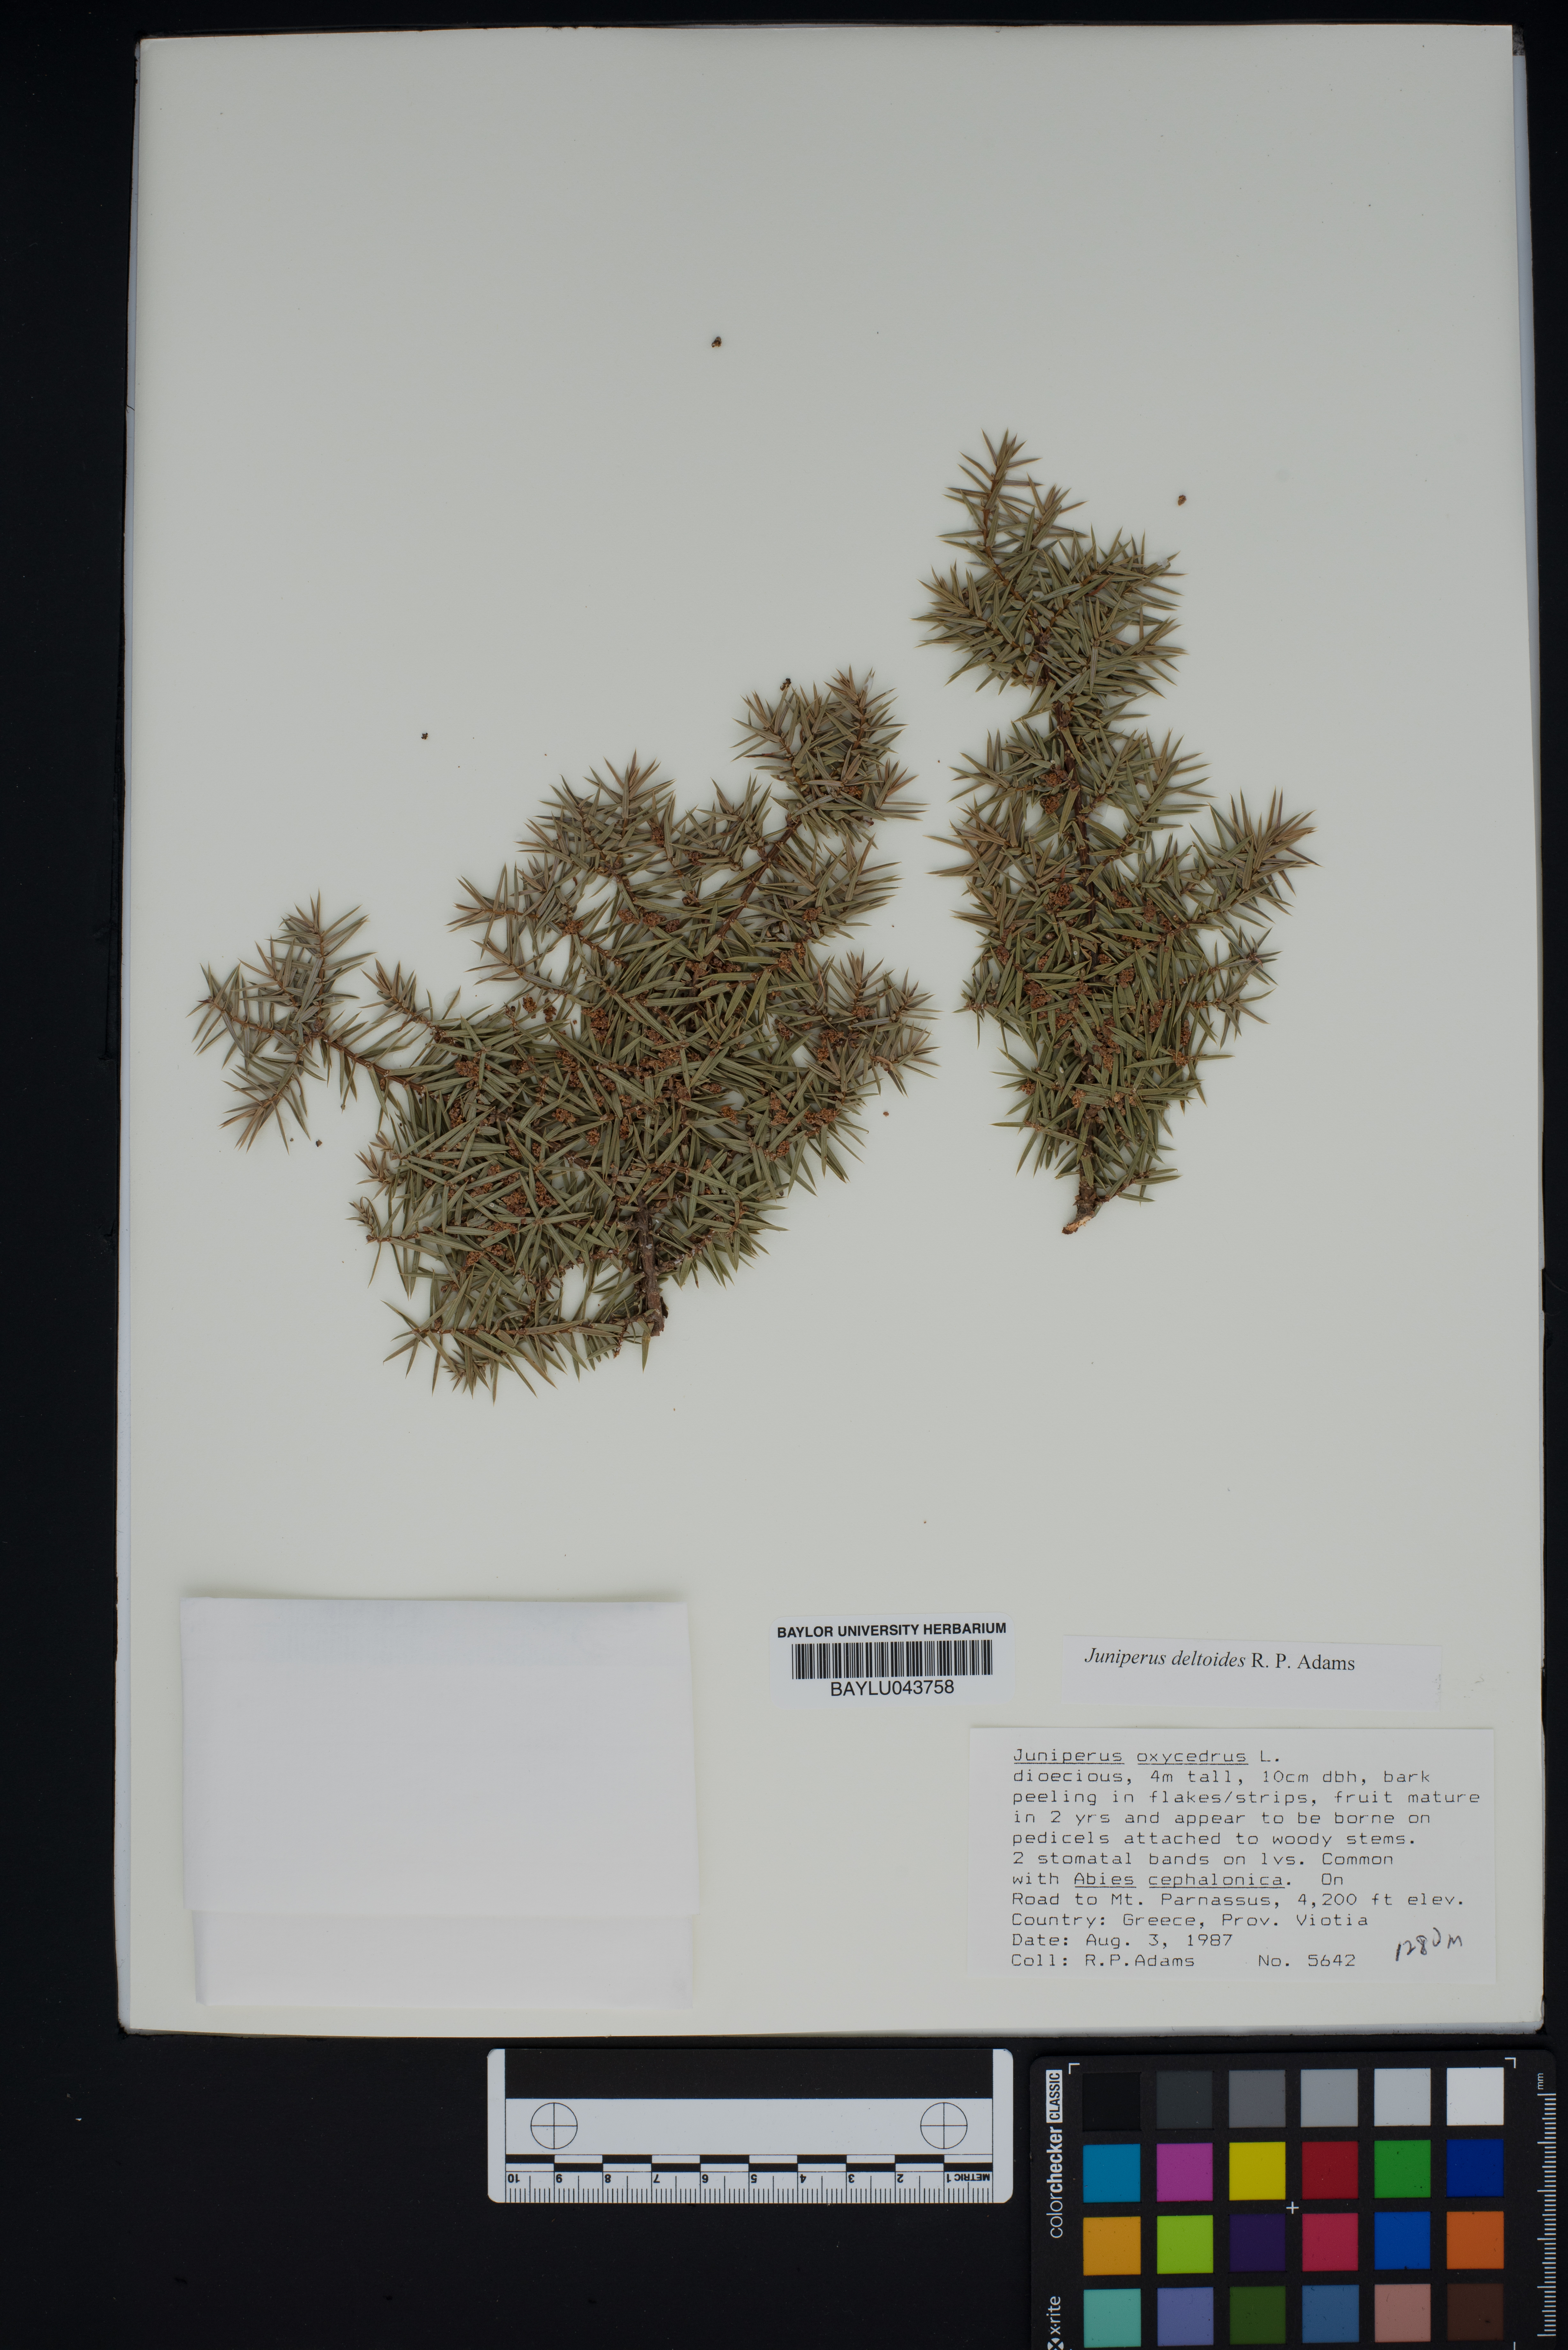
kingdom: Plantae
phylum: Tracheophyta
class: Pinopsida
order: Pinales
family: Cupressaceae
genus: Juniperus
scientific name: Juniperus oxycedrus
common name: Prickly juniper
